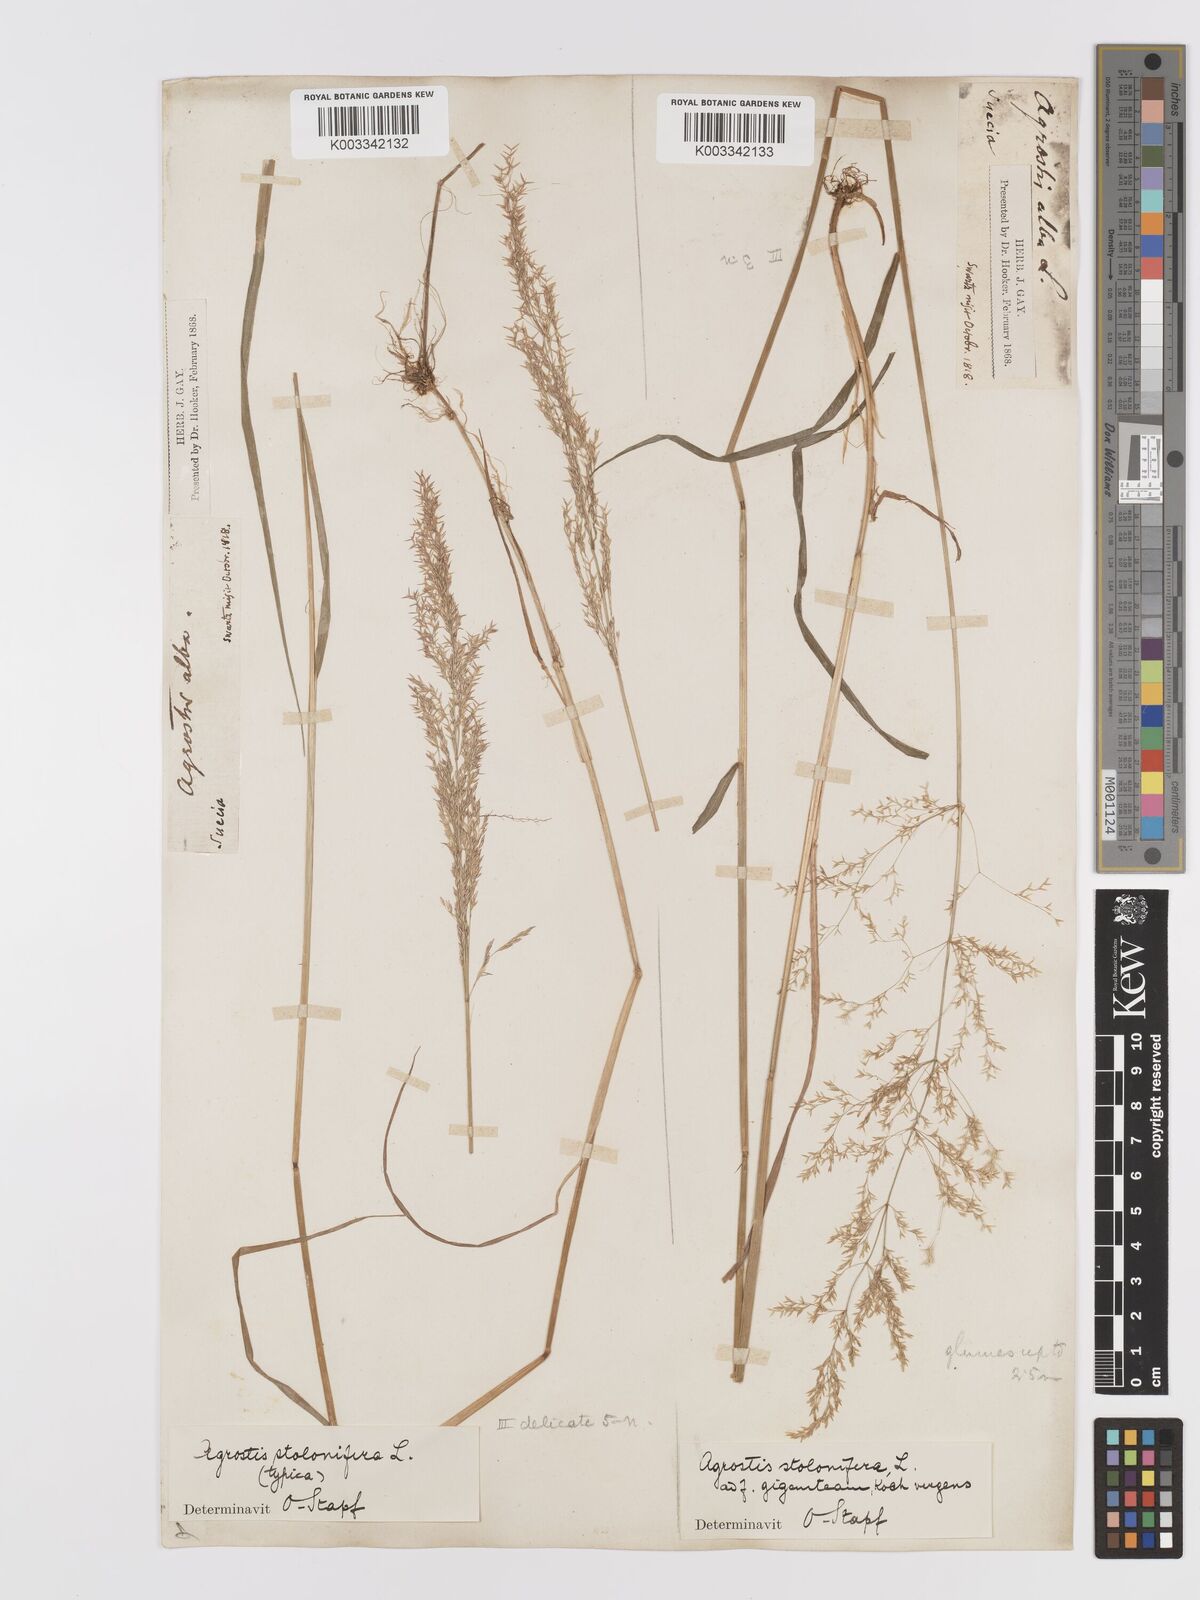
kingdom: Plantae
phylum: Tracheophyta
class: Liliopsida
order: Poales
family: Poaceae
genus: Agrostis
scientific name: Agrostis stolonifera
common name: Creeping bentgrass
